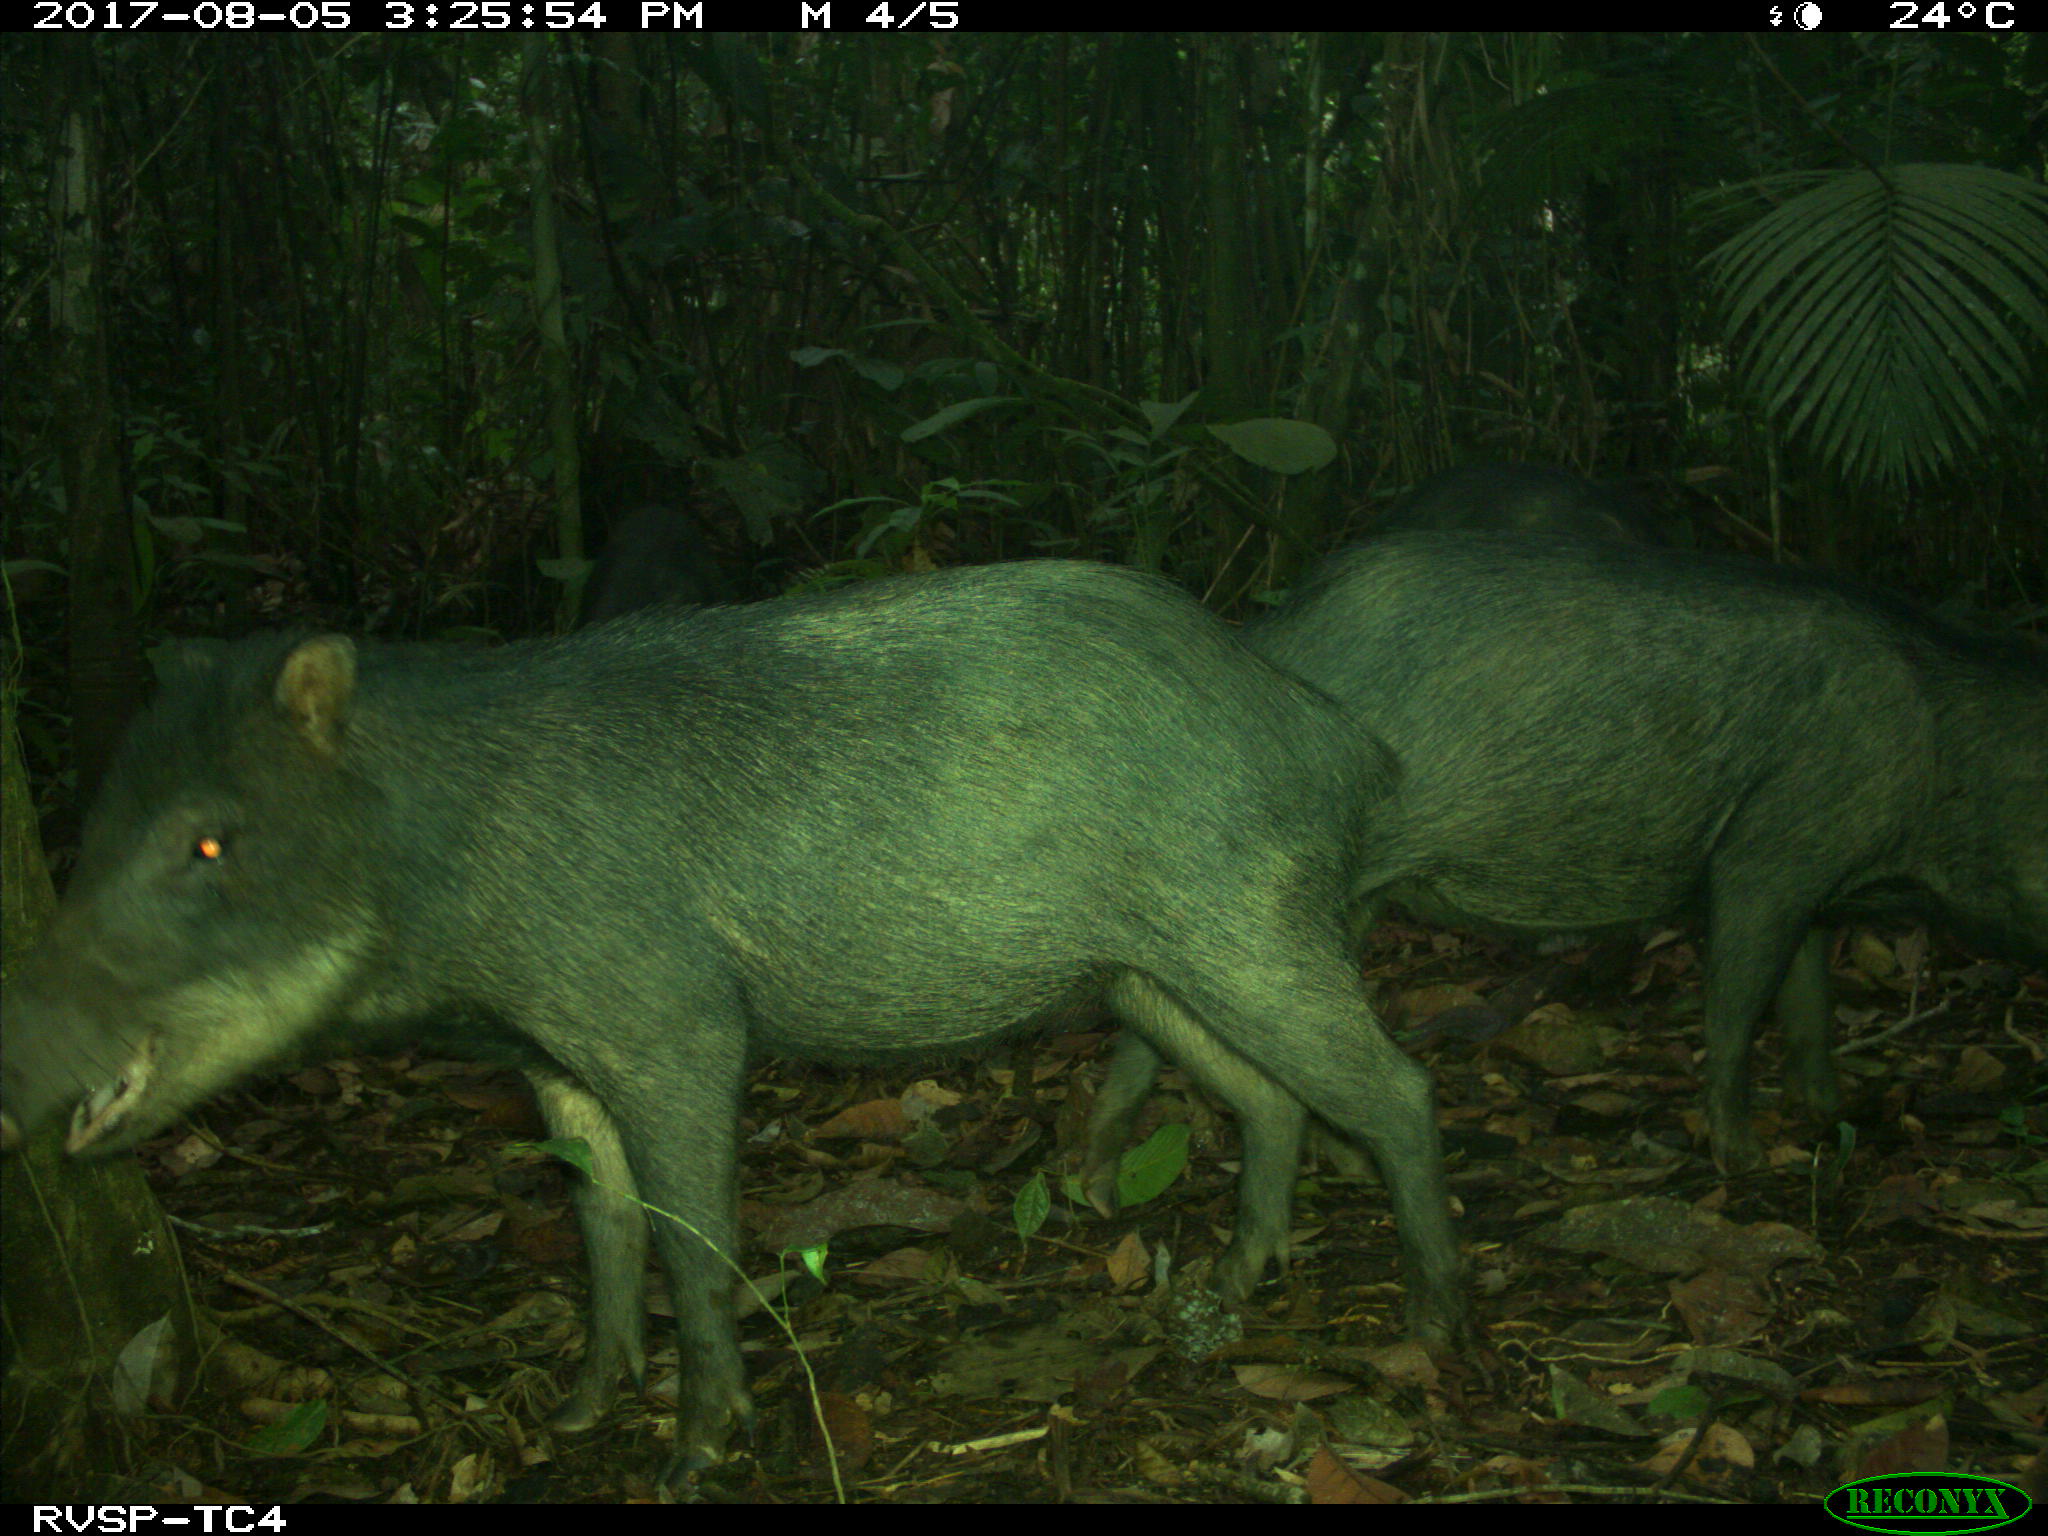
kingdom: Animalia
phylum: Chordata
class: Mammalia
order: Artiodactyla
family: Tayassuidae
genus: Tayassu
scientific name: Tayassu pecari
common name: White-lipped peccary
